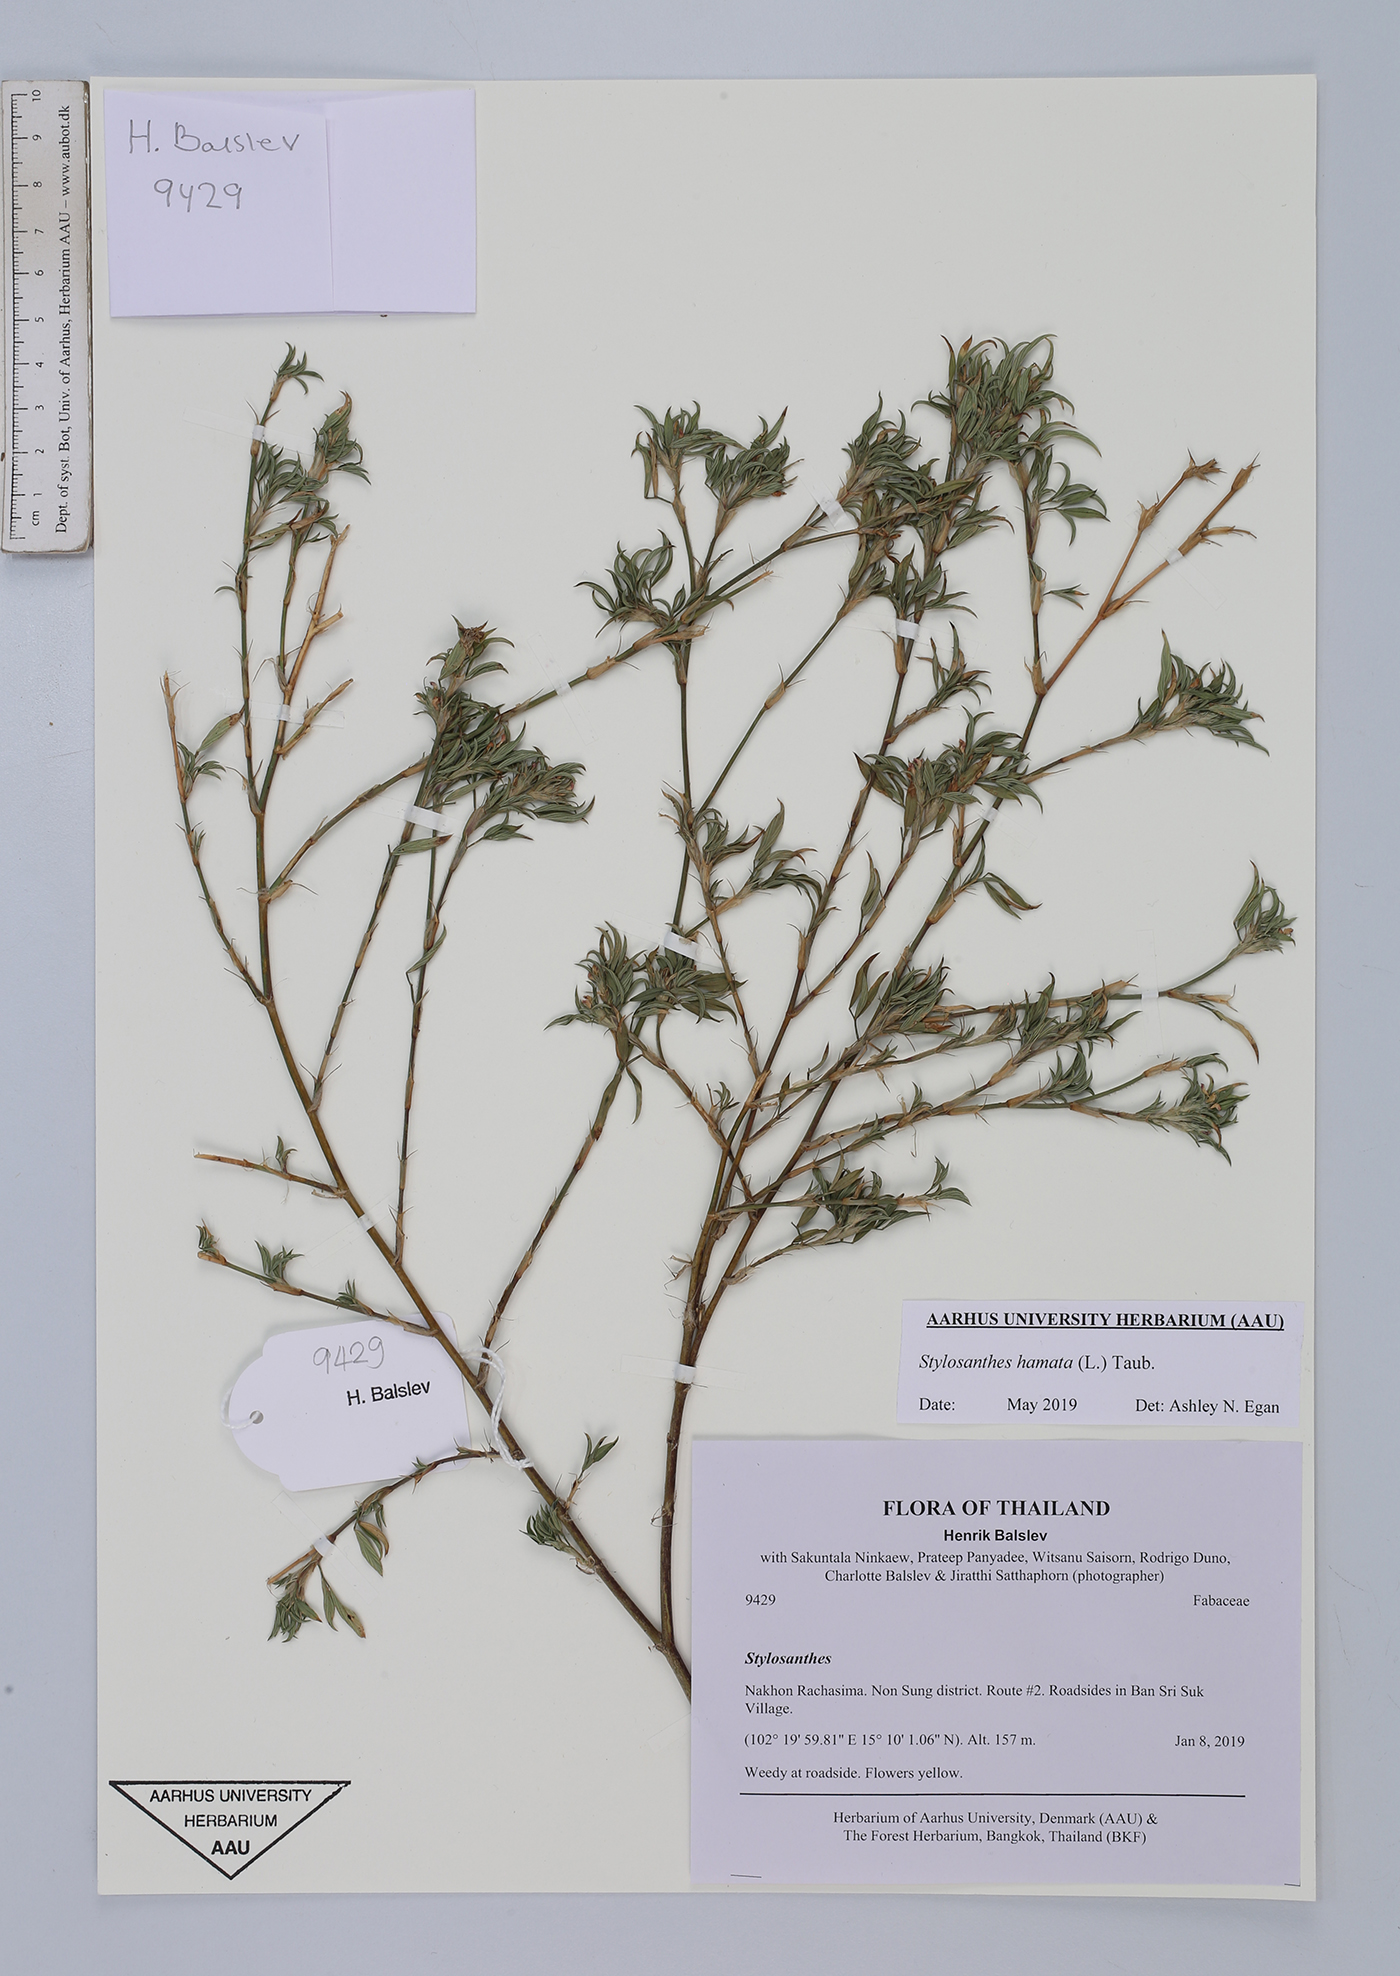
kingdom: Plantae
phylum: Tracheophyta
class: Magnoliopsida
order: Fabales
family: Fabaceae
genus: Stylosanthes
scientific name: Stylosanthes hamata
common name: Cheesytoes
